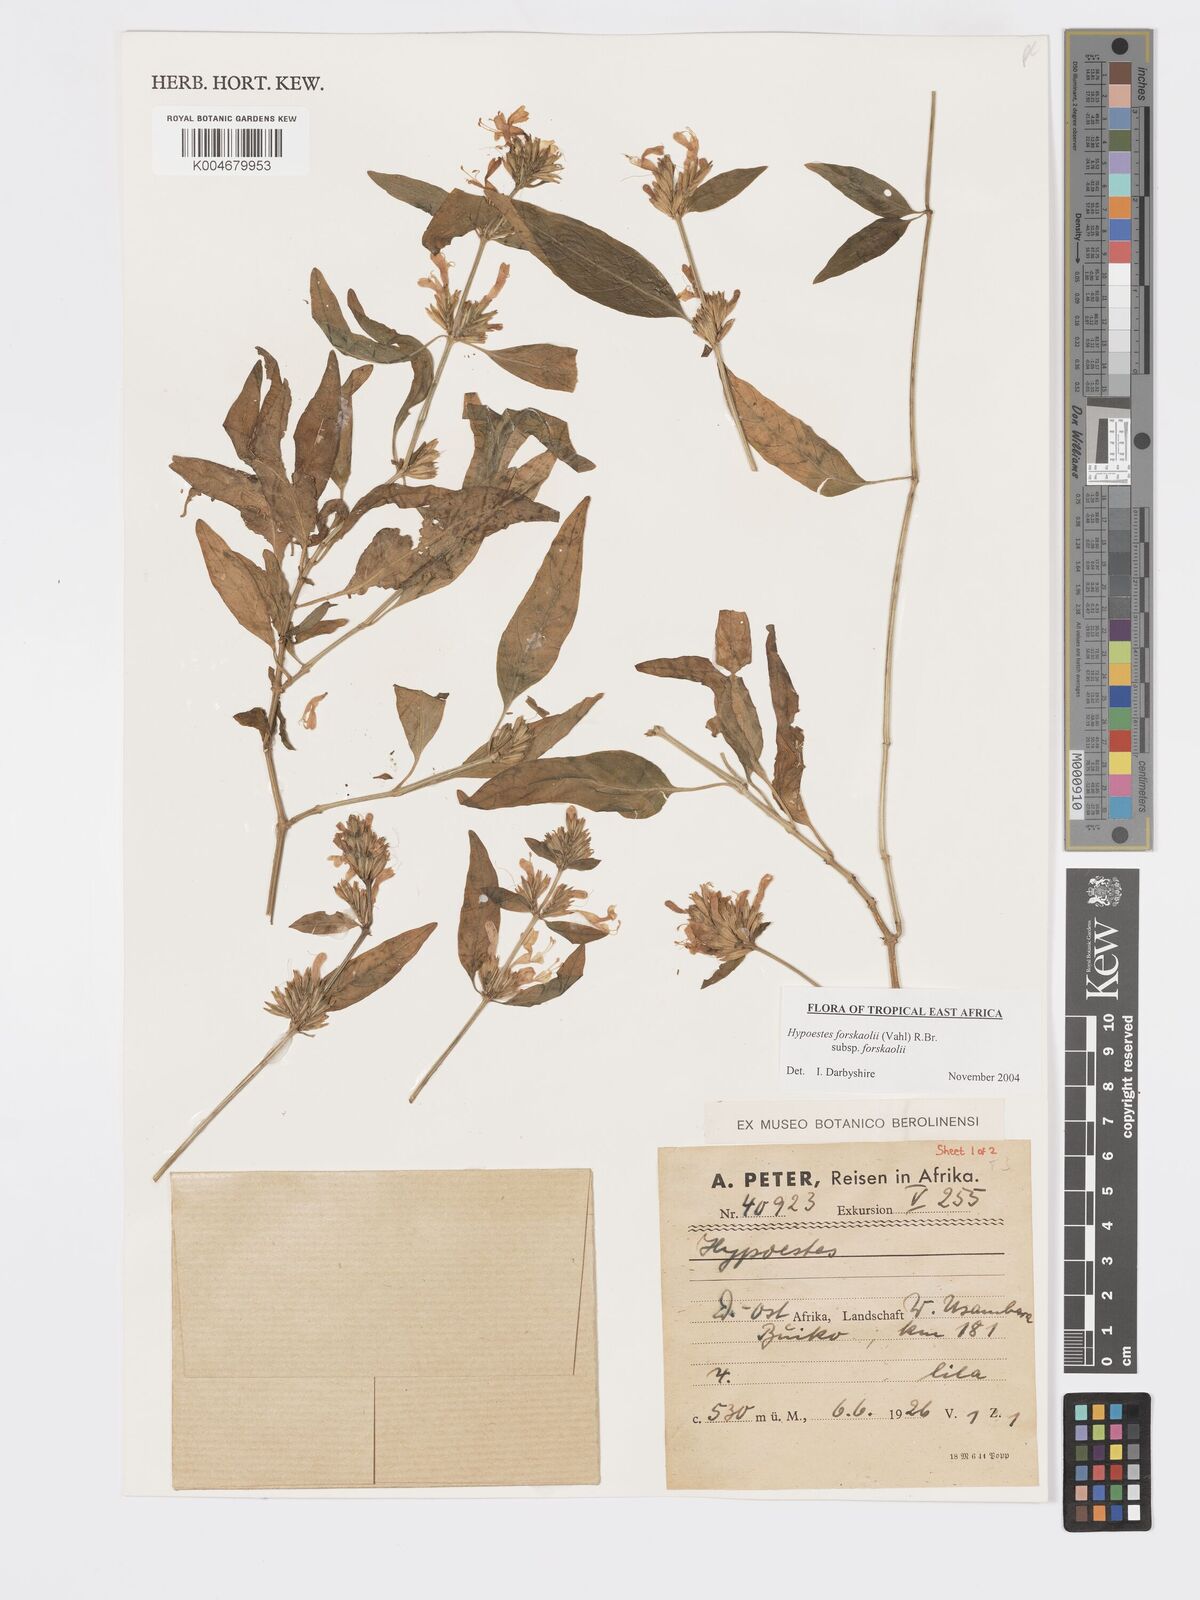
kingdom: Plantae
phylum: Tracheophyta
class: Magnoliopsida
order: Lamiales
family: Acanthaceae
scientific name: Acanthaceae
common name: Acanthaceae
